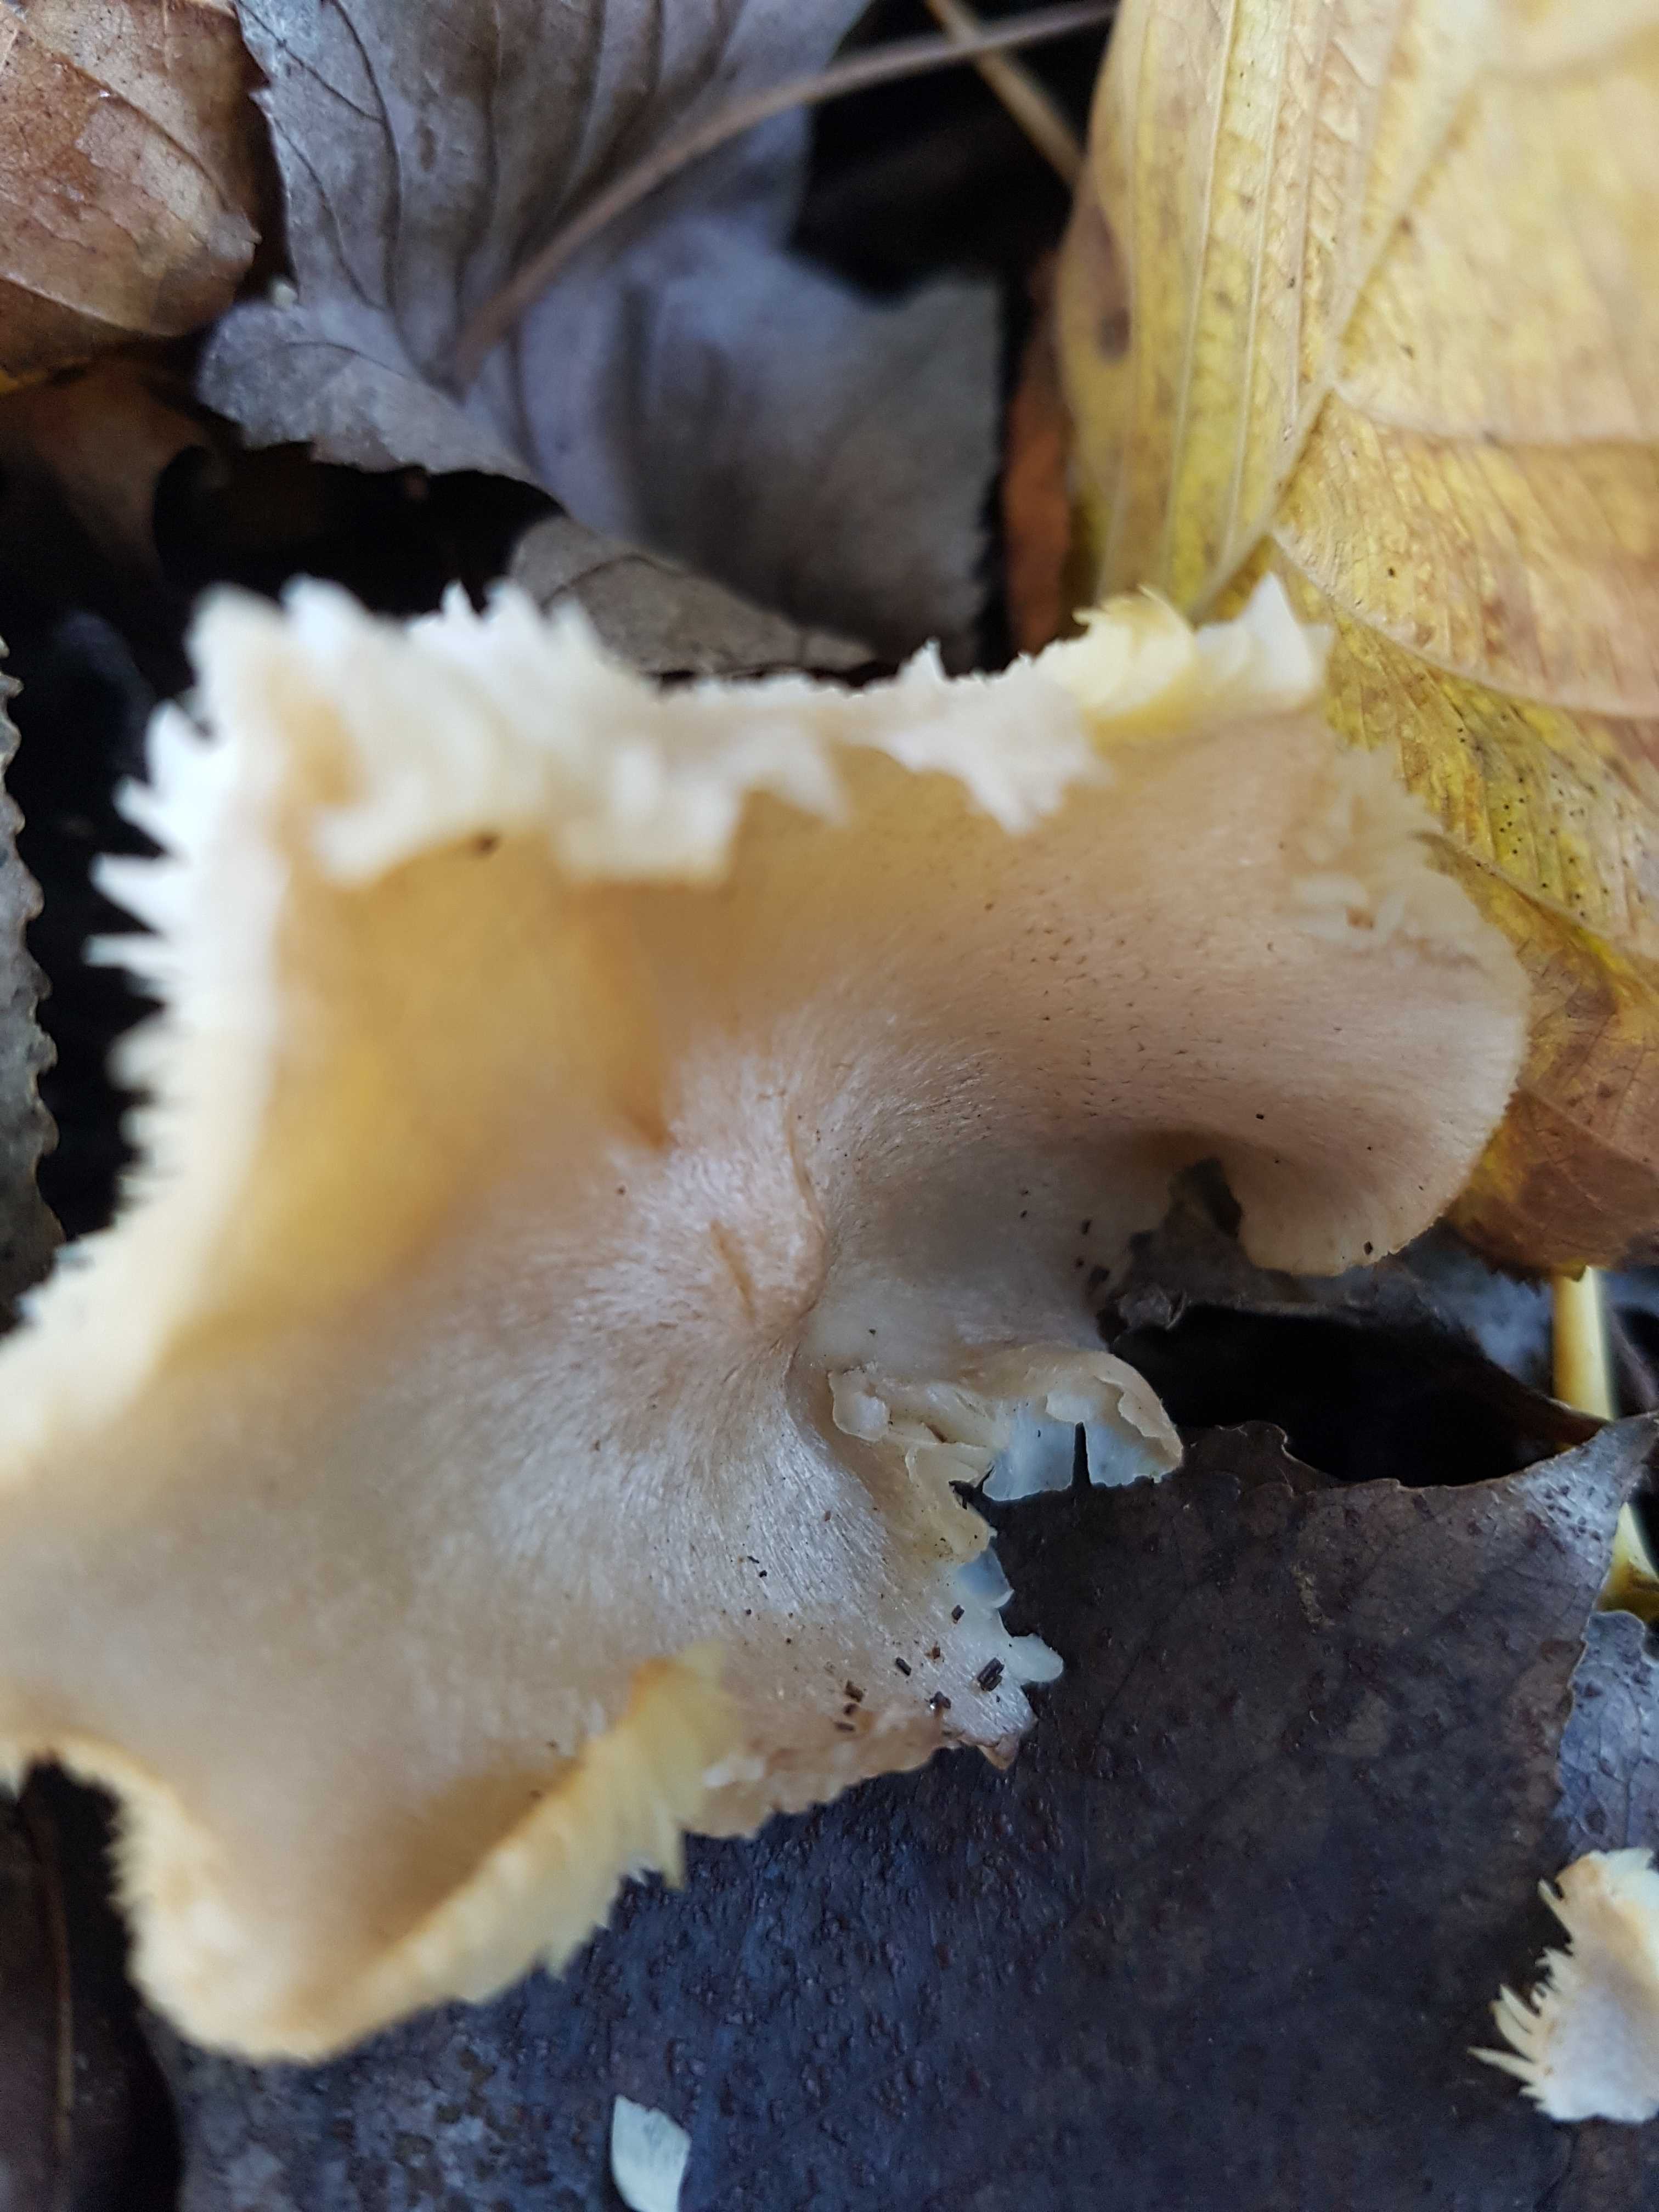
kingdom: Fungi
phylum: Basidiomycota
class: Agaricomycetes
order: Agaricales
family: Tricholomataceae
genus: Tricholoma
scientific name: Tricholoma
